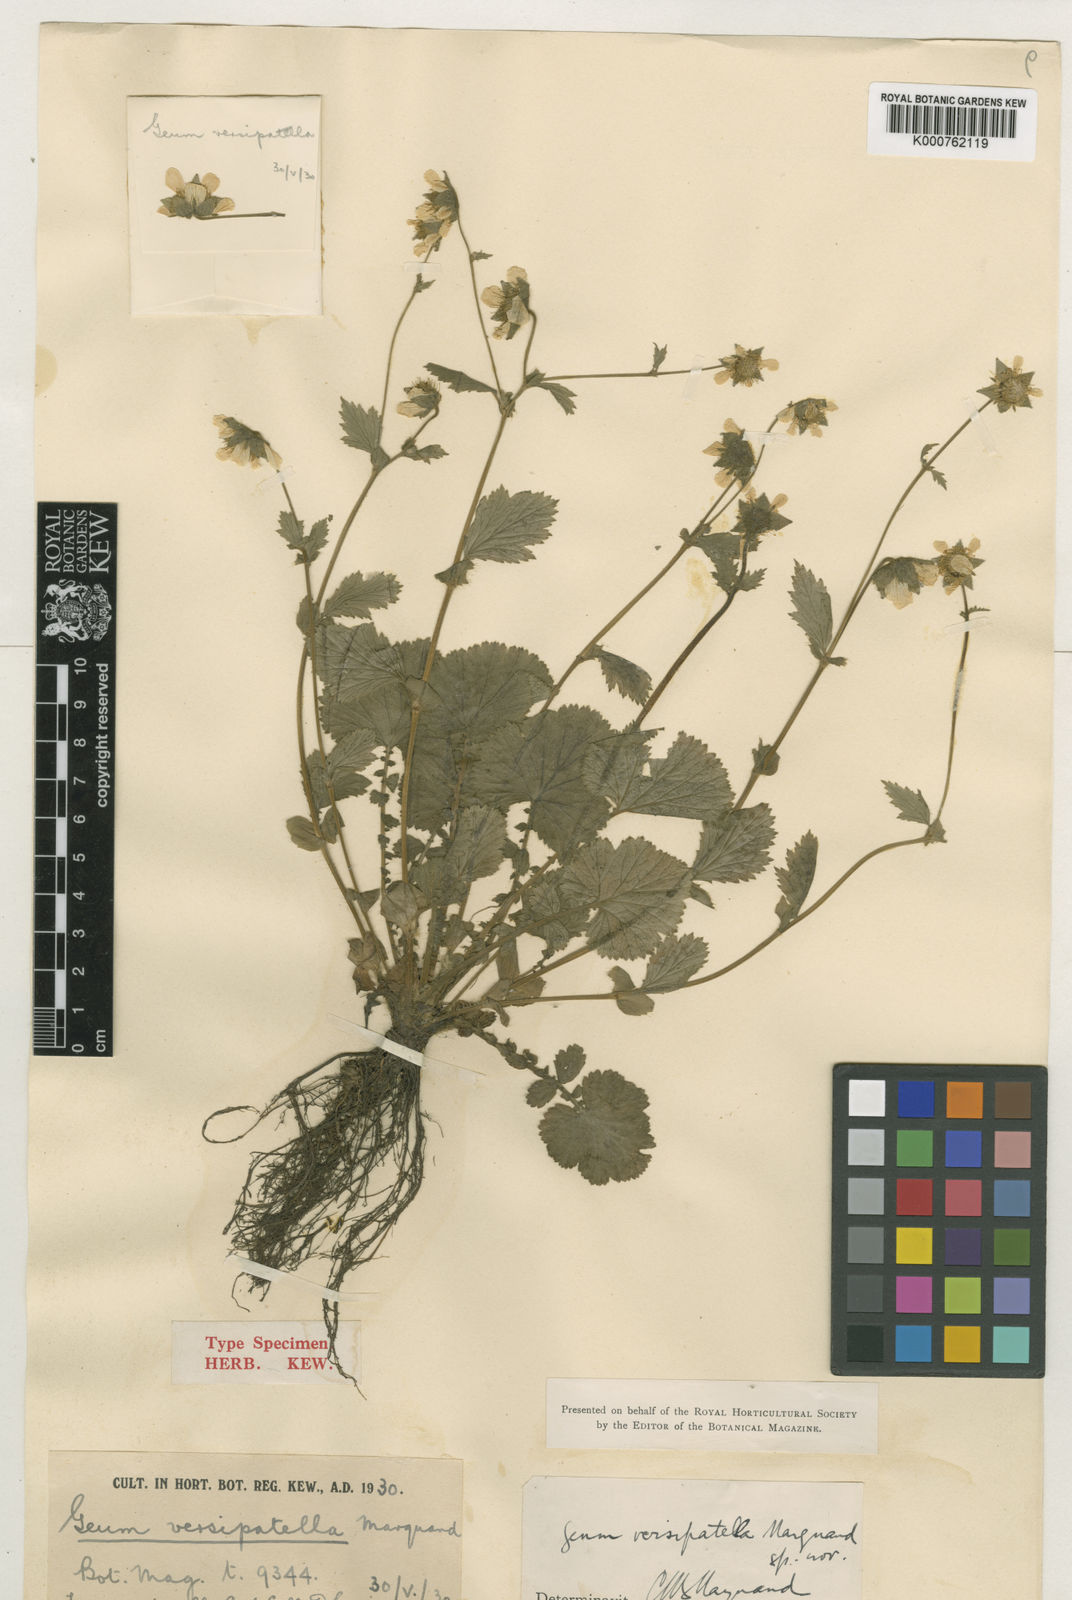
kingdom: Plantae
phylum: Tracheophyta
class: Magnoliopsida
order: Rosales
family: Rosaceae
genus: Geum
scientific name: Geum sikkimense
